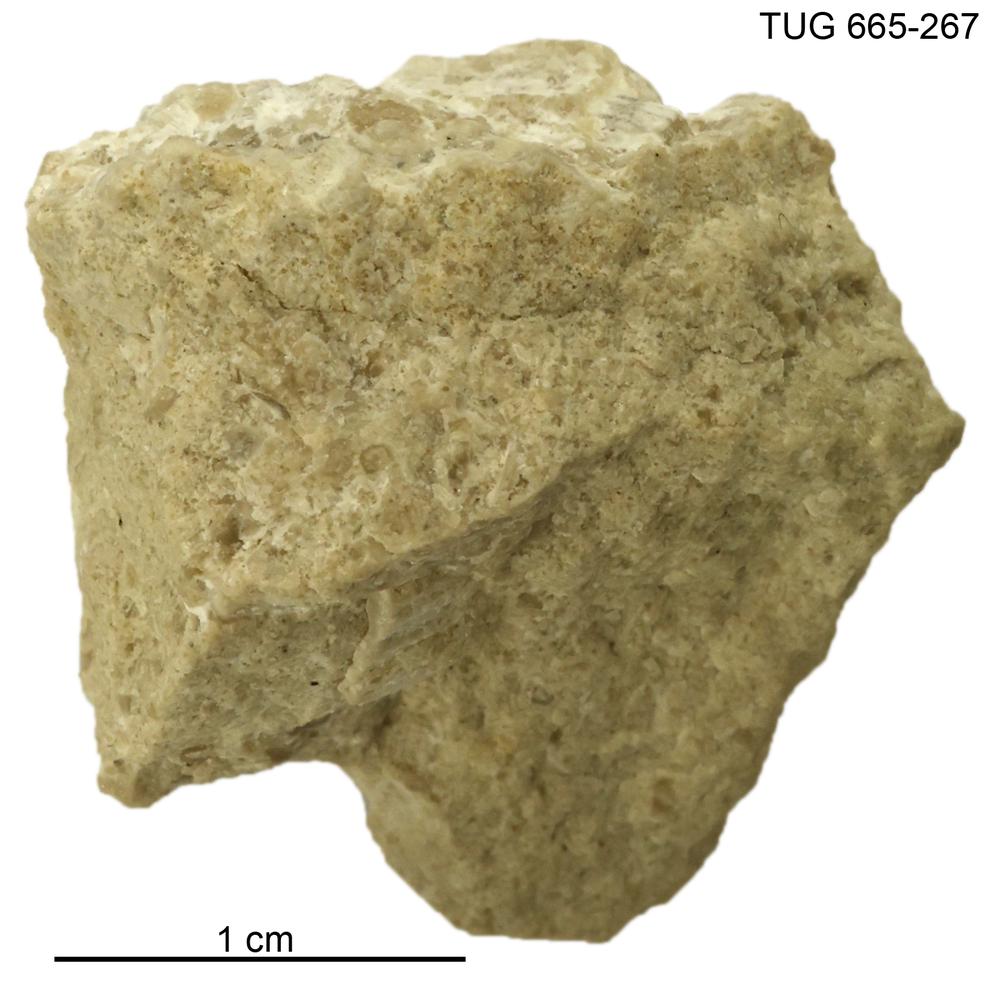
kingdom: Animalia
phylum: Bryozoa
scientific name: Bryozoa
